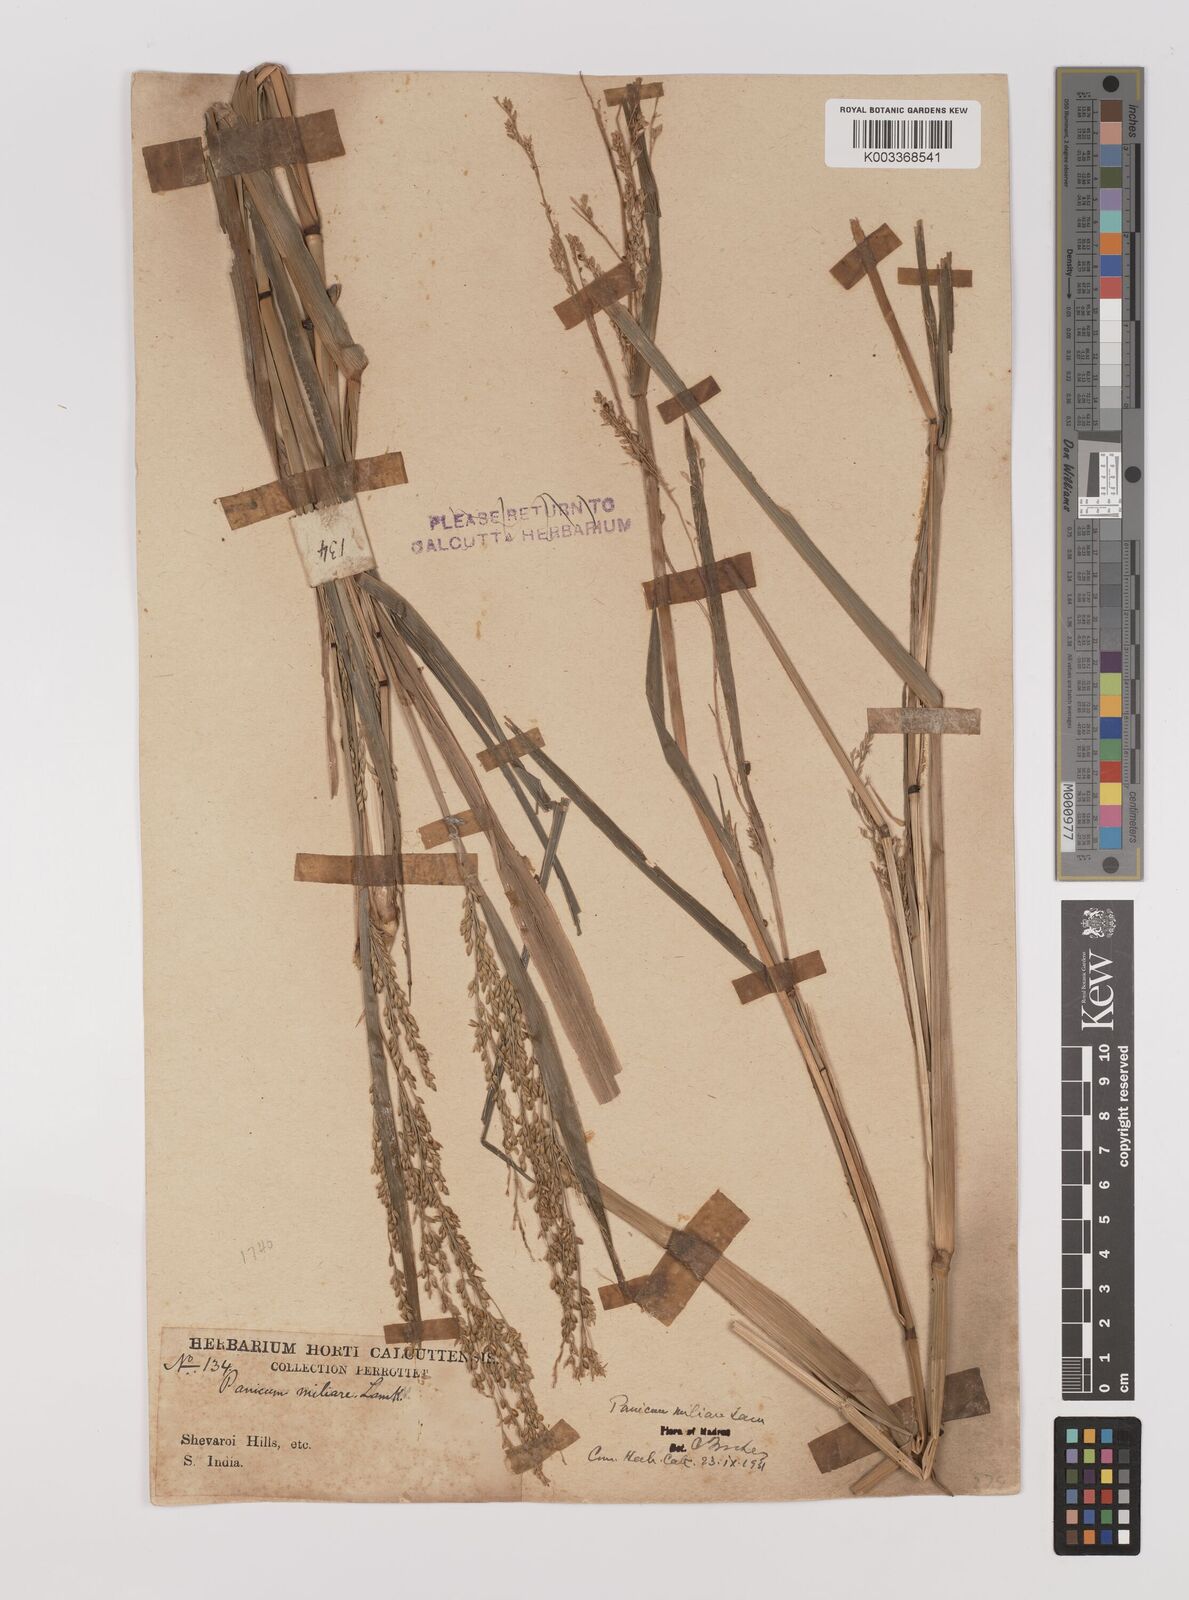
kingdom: Plantae
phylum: Tracheophyta
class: Liliopsida
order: Poales
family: Poaceae
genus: Panicum
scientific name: Panicum sumatrense
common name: Little millet
